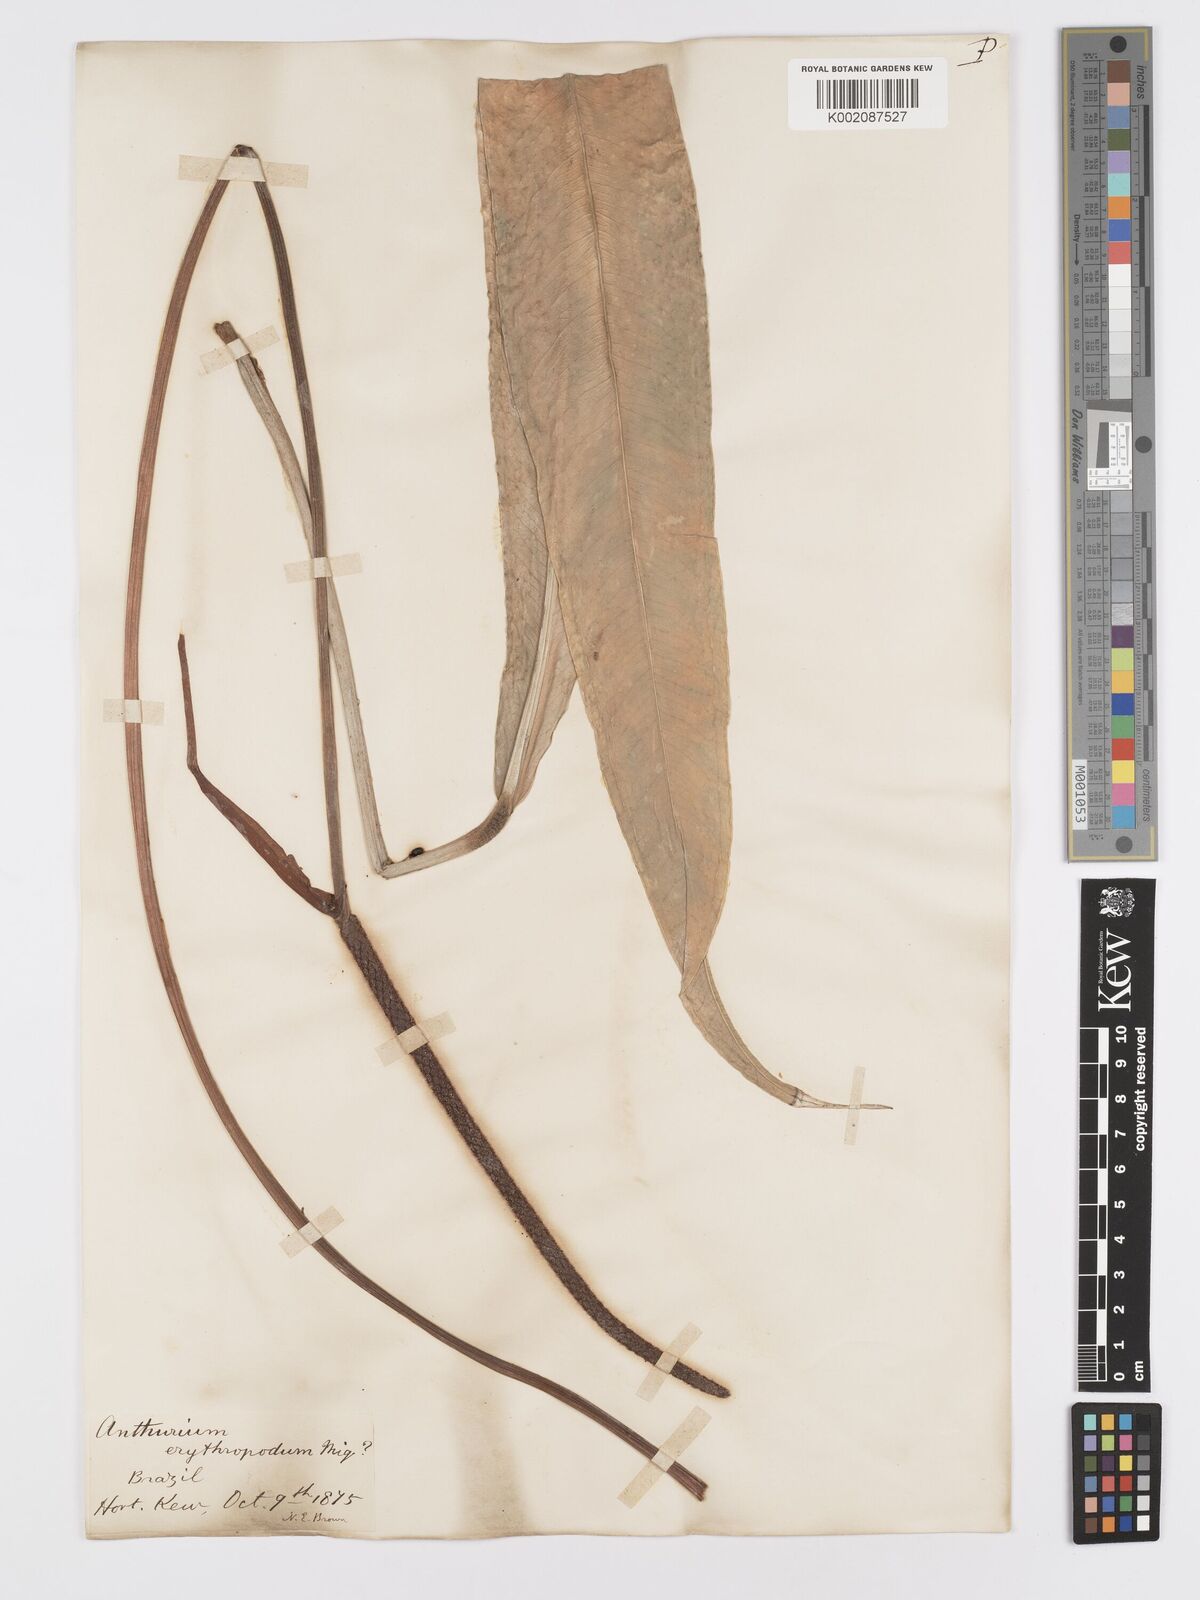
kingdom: Plantae
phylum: Tracheophyta
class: Liliopsida
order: Alismatales
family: Araceae
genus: Anthurium
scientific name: Anthurium intermedium
